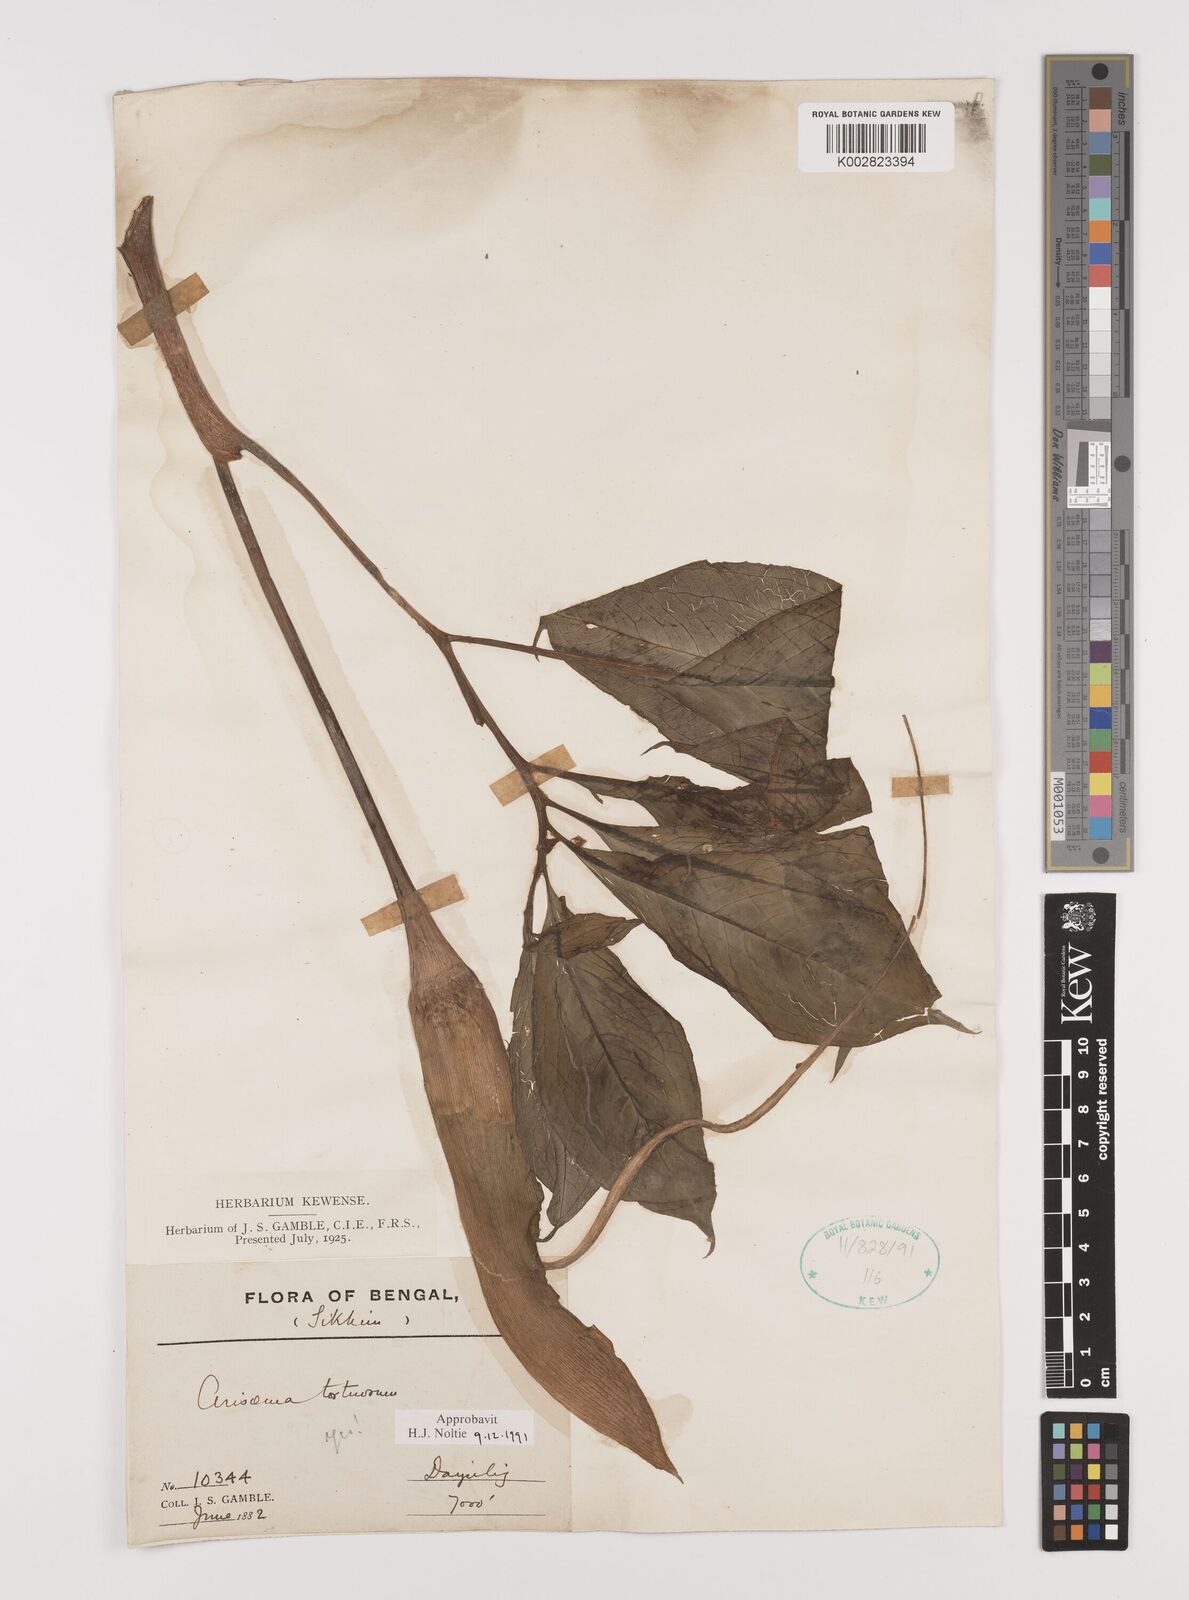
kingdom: Plantae
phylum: Tracheophyta
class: Liliopsida
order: Alismatales
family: Araceae
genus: Arisaema
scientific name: Arisaema tortuosum
